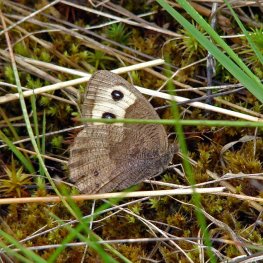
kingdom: Animalia
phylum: Arthropoda
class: Insecta
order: Lepidoptera
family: Nymphalidae
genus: Cercyonis
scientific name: Cercyonis pegala
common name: Common Wood-Nymph
